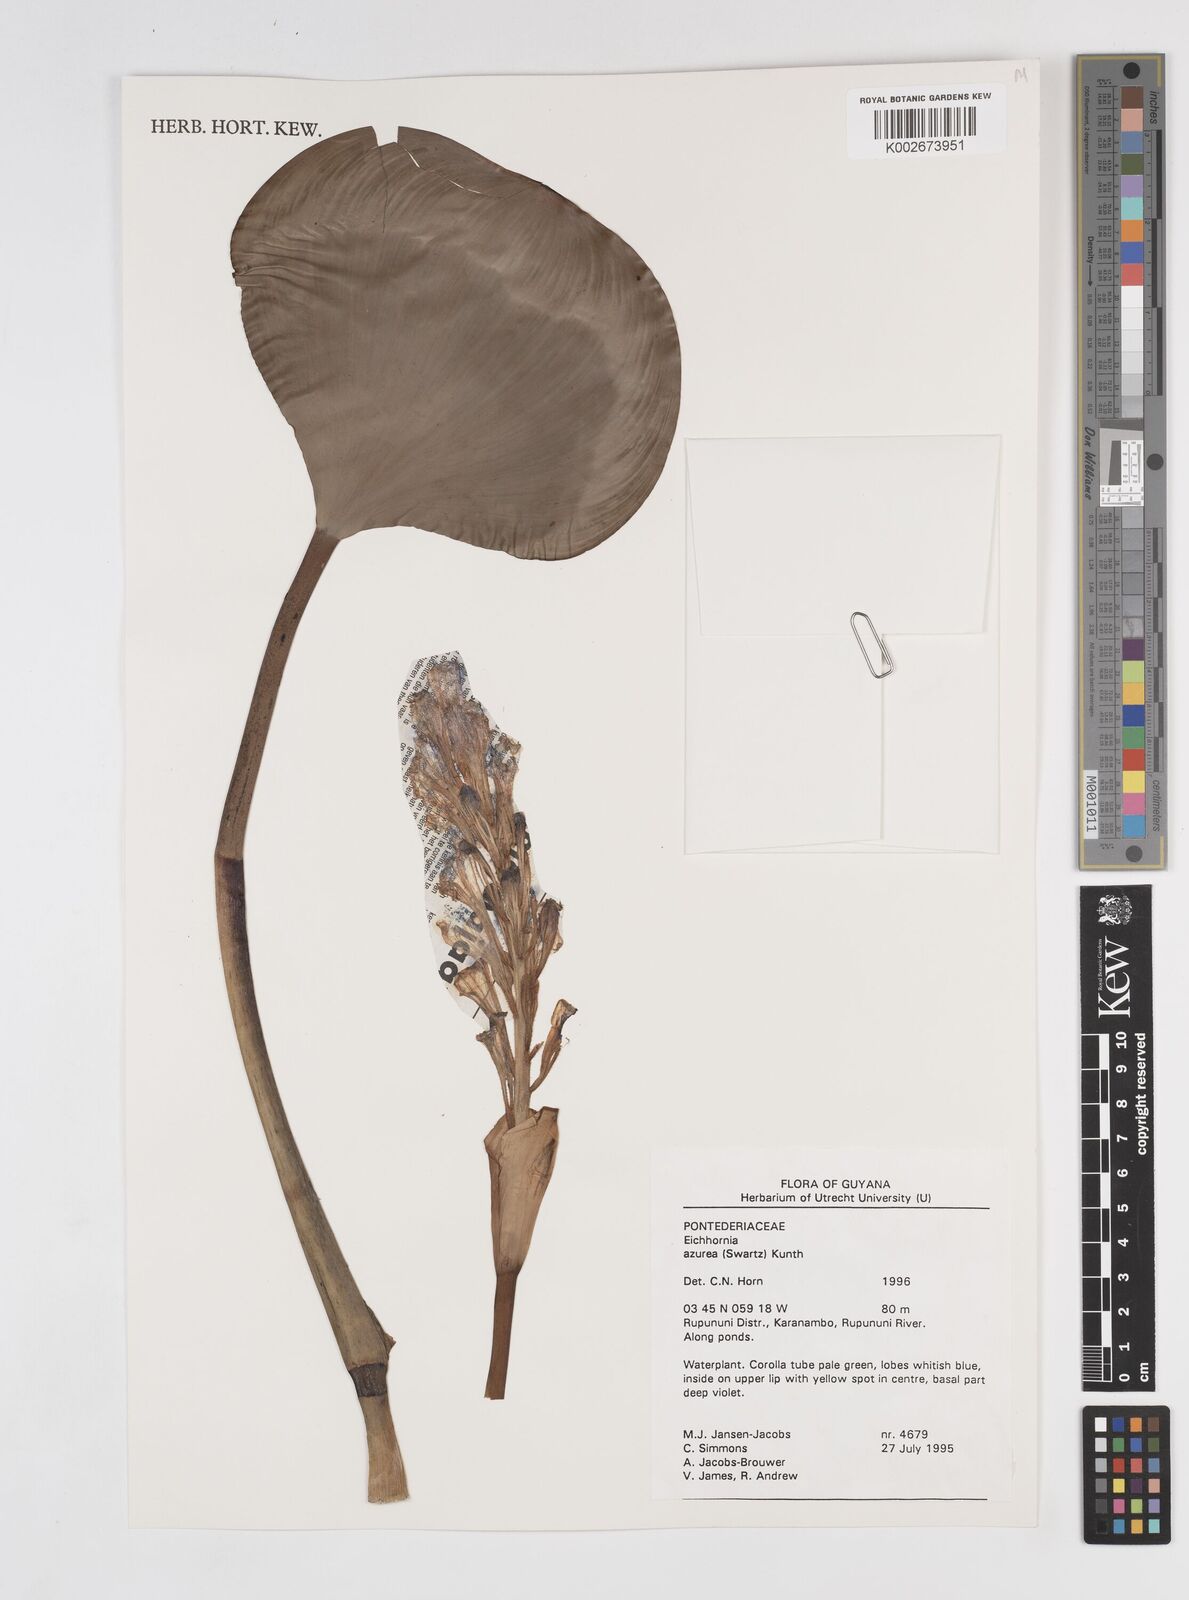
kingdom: Plantae
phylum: Tracheophyta
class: Liliopsida
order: Commelinales
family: Pontederiaceae
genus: Pontederia
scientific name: Pontederia azurea
